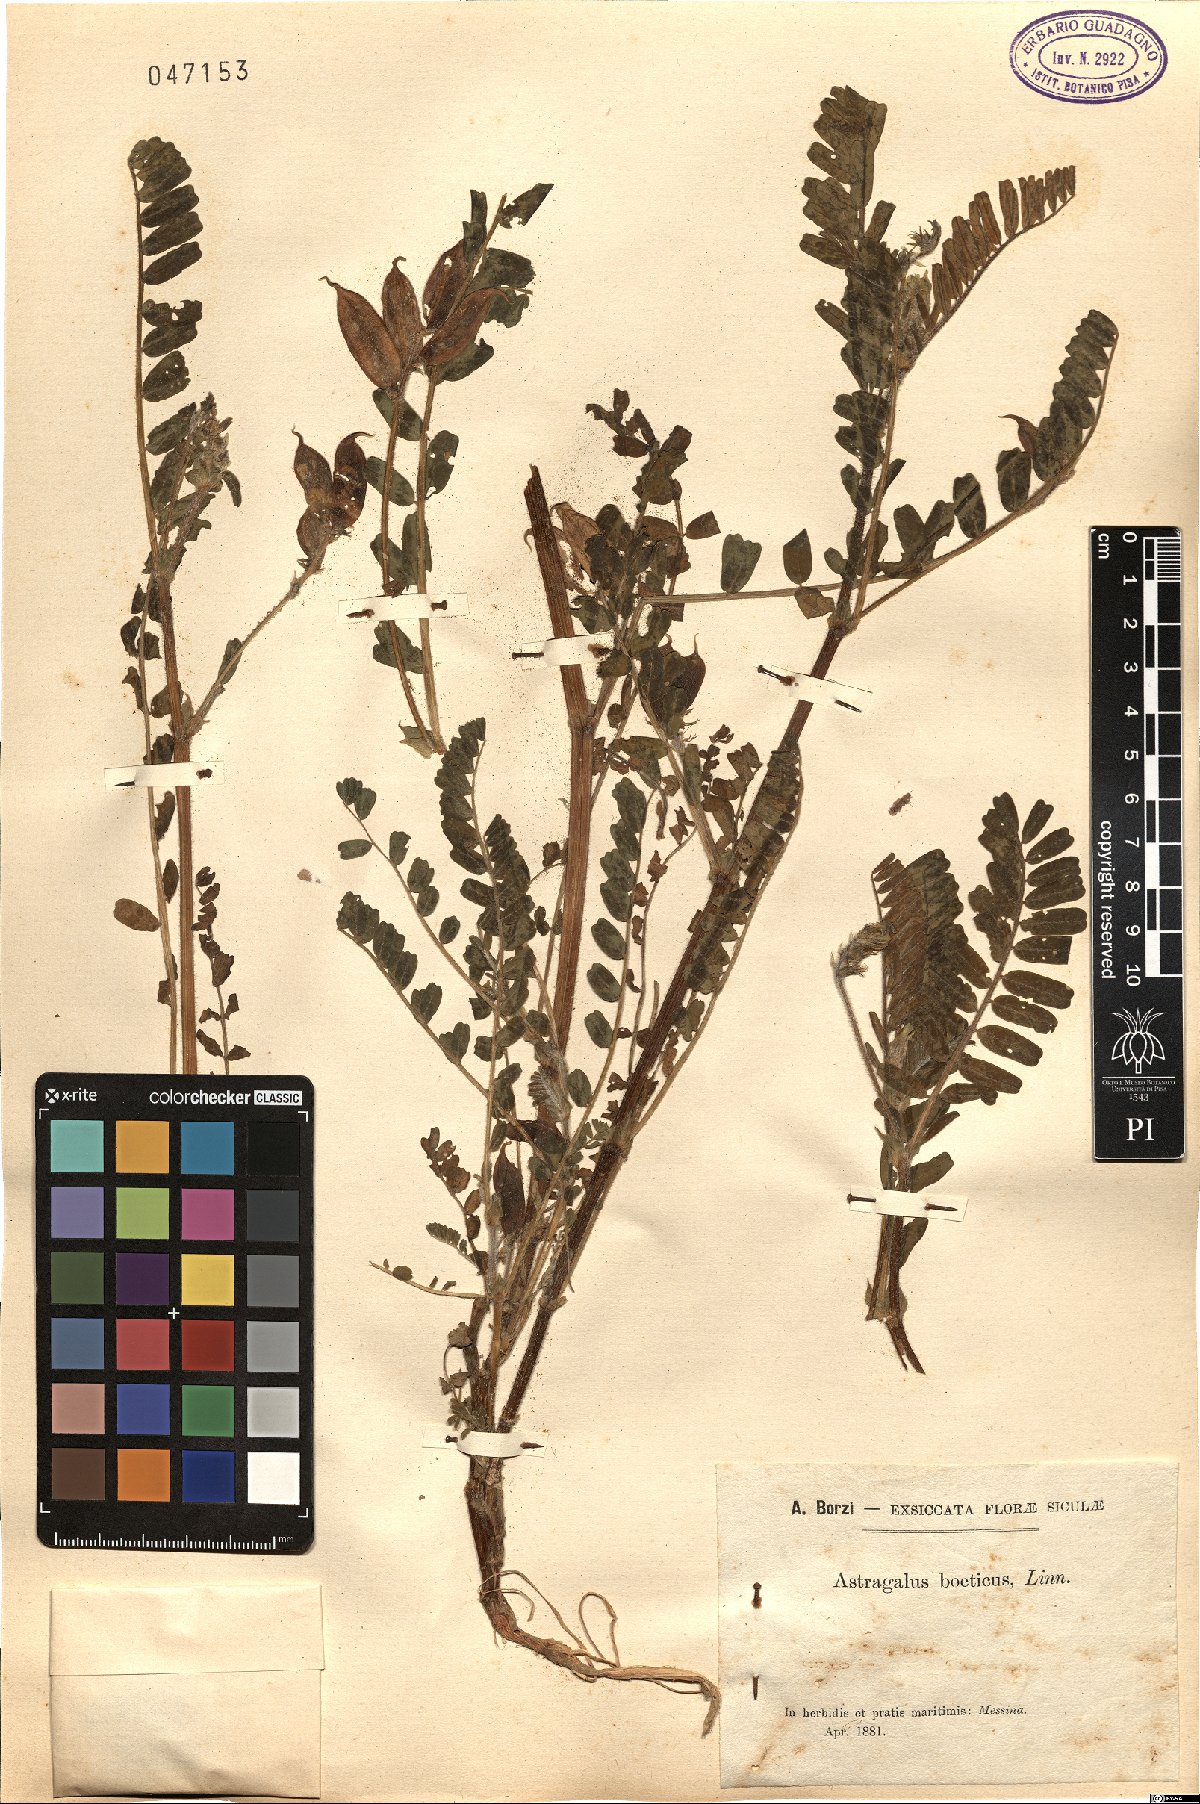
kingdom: Plantae
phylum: Tracheophyta
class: Magnoliopsida
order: Fabales
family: Fabaceae
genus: Astragalus
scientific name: Astragalus boeticus
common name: Milk-vetch
